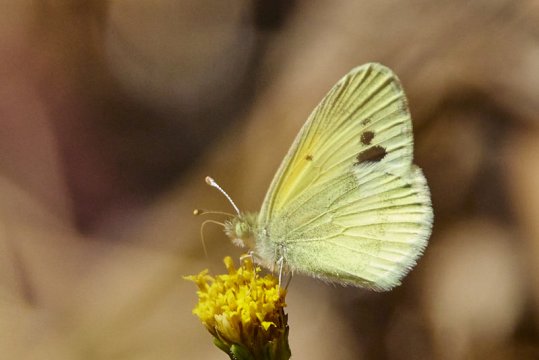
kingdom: Animalia
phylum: Arthropoda
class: Insecta
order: Lepidoptera
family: Pieridae
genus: Nathalis
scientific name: Nathalis iole
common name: Dainty Sulphur
